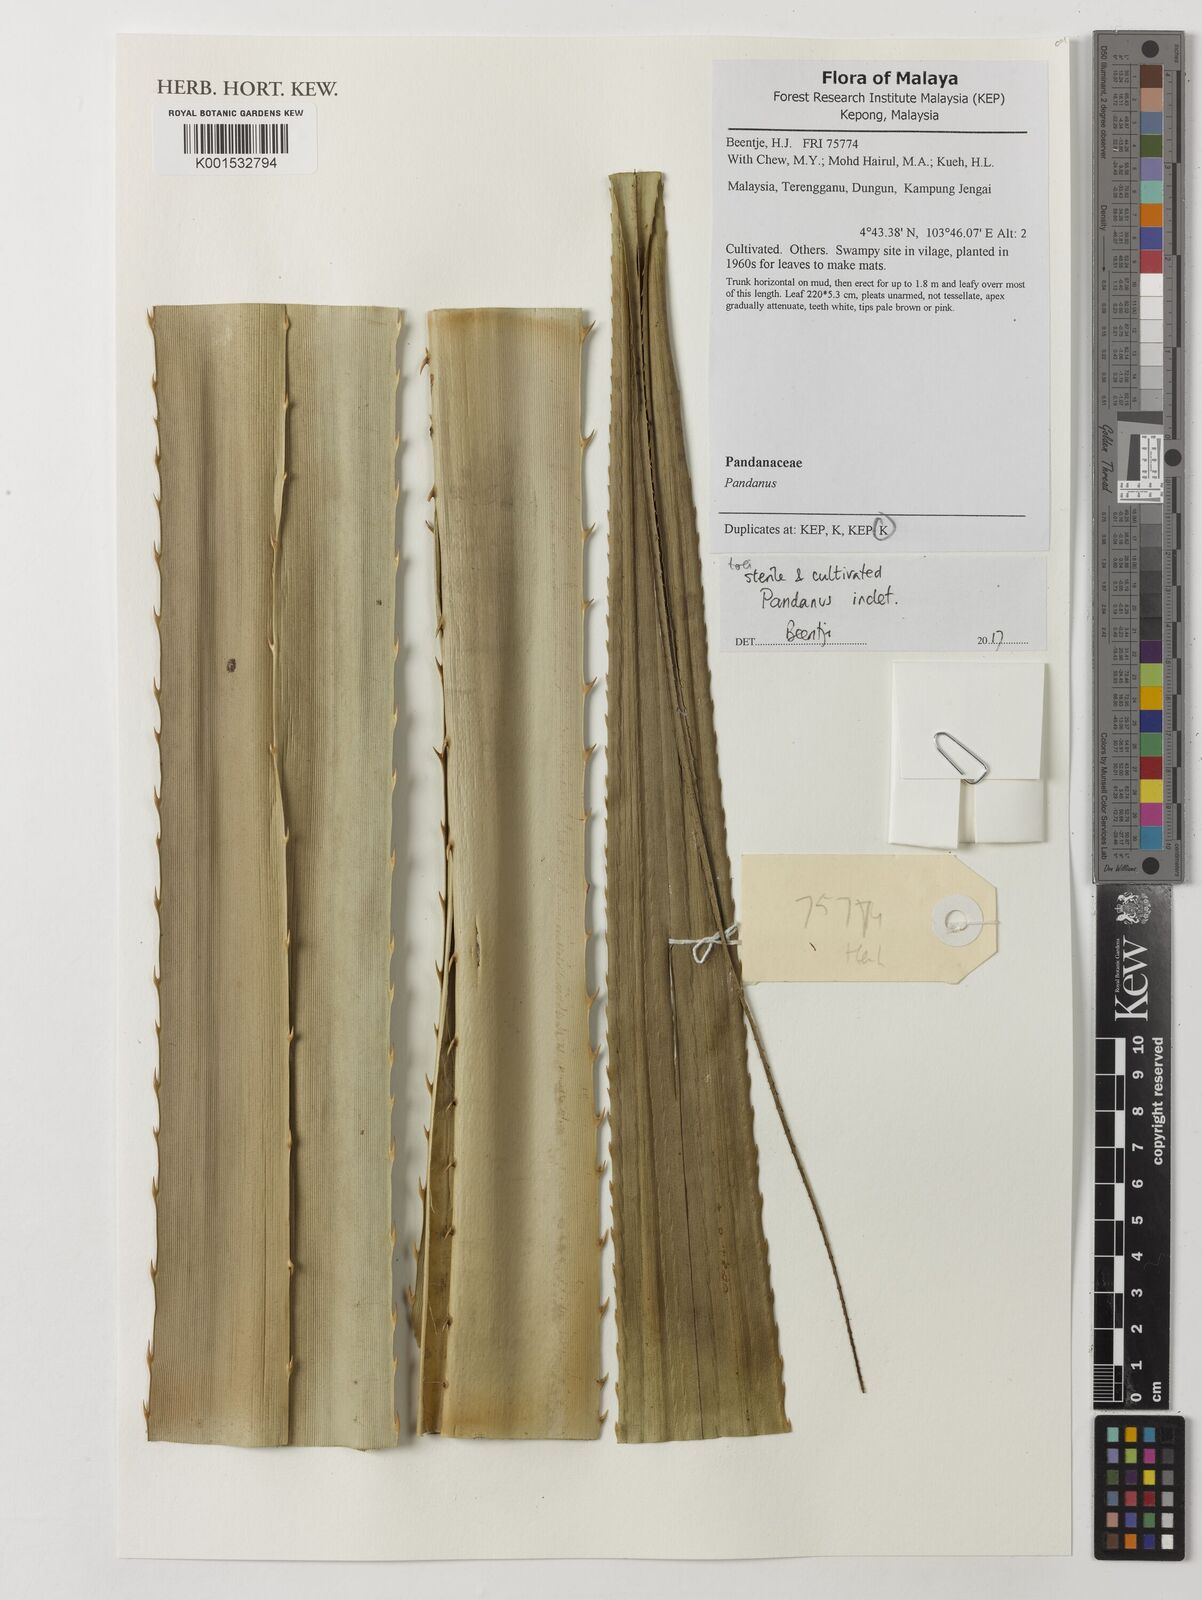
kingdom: Plantae
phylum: Tracheophyta
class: Liliopsida
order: Pandanales
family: Pandanaceae
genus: Pandanus
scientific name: Pandanus
